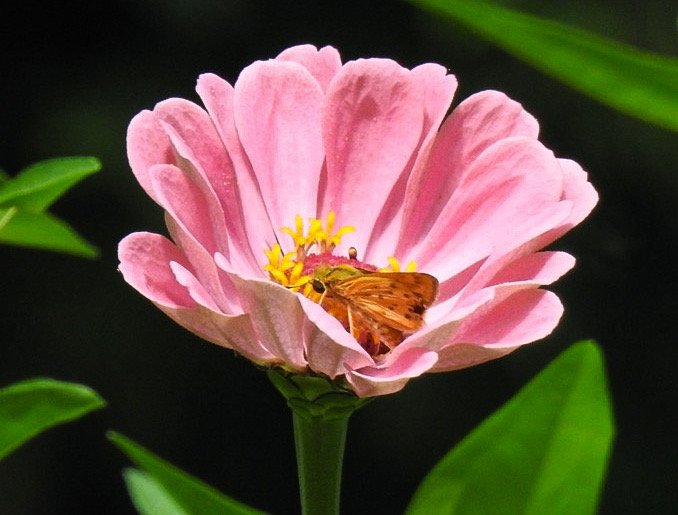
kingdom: Animalia
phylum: Arthropoda
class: Insecta
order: Lepidoptera
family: Hesperiidae
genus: Hylephila
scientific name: Hylephila phyleus
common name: Fiery Skipper
